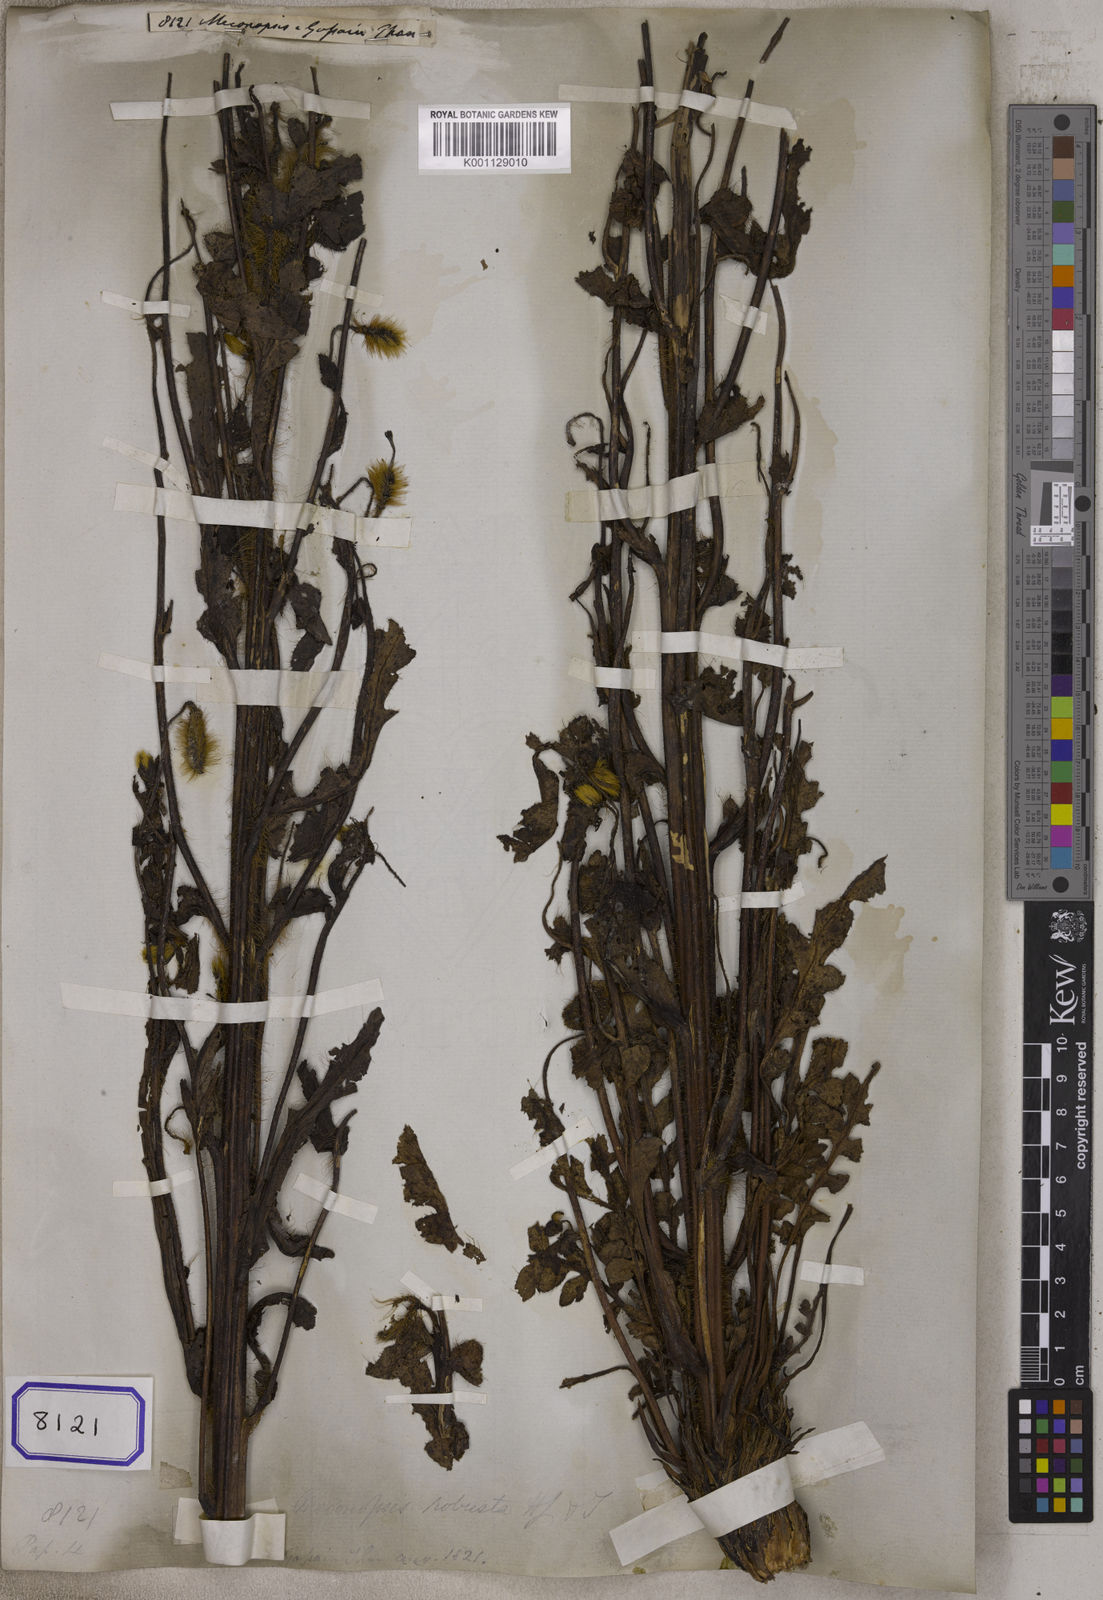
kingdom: Plantae
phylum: Tracheophyta
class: Magnoliopsida
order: Ranunculales
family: Papaveraceae
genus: Meconopsis
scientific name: Meconopsis
